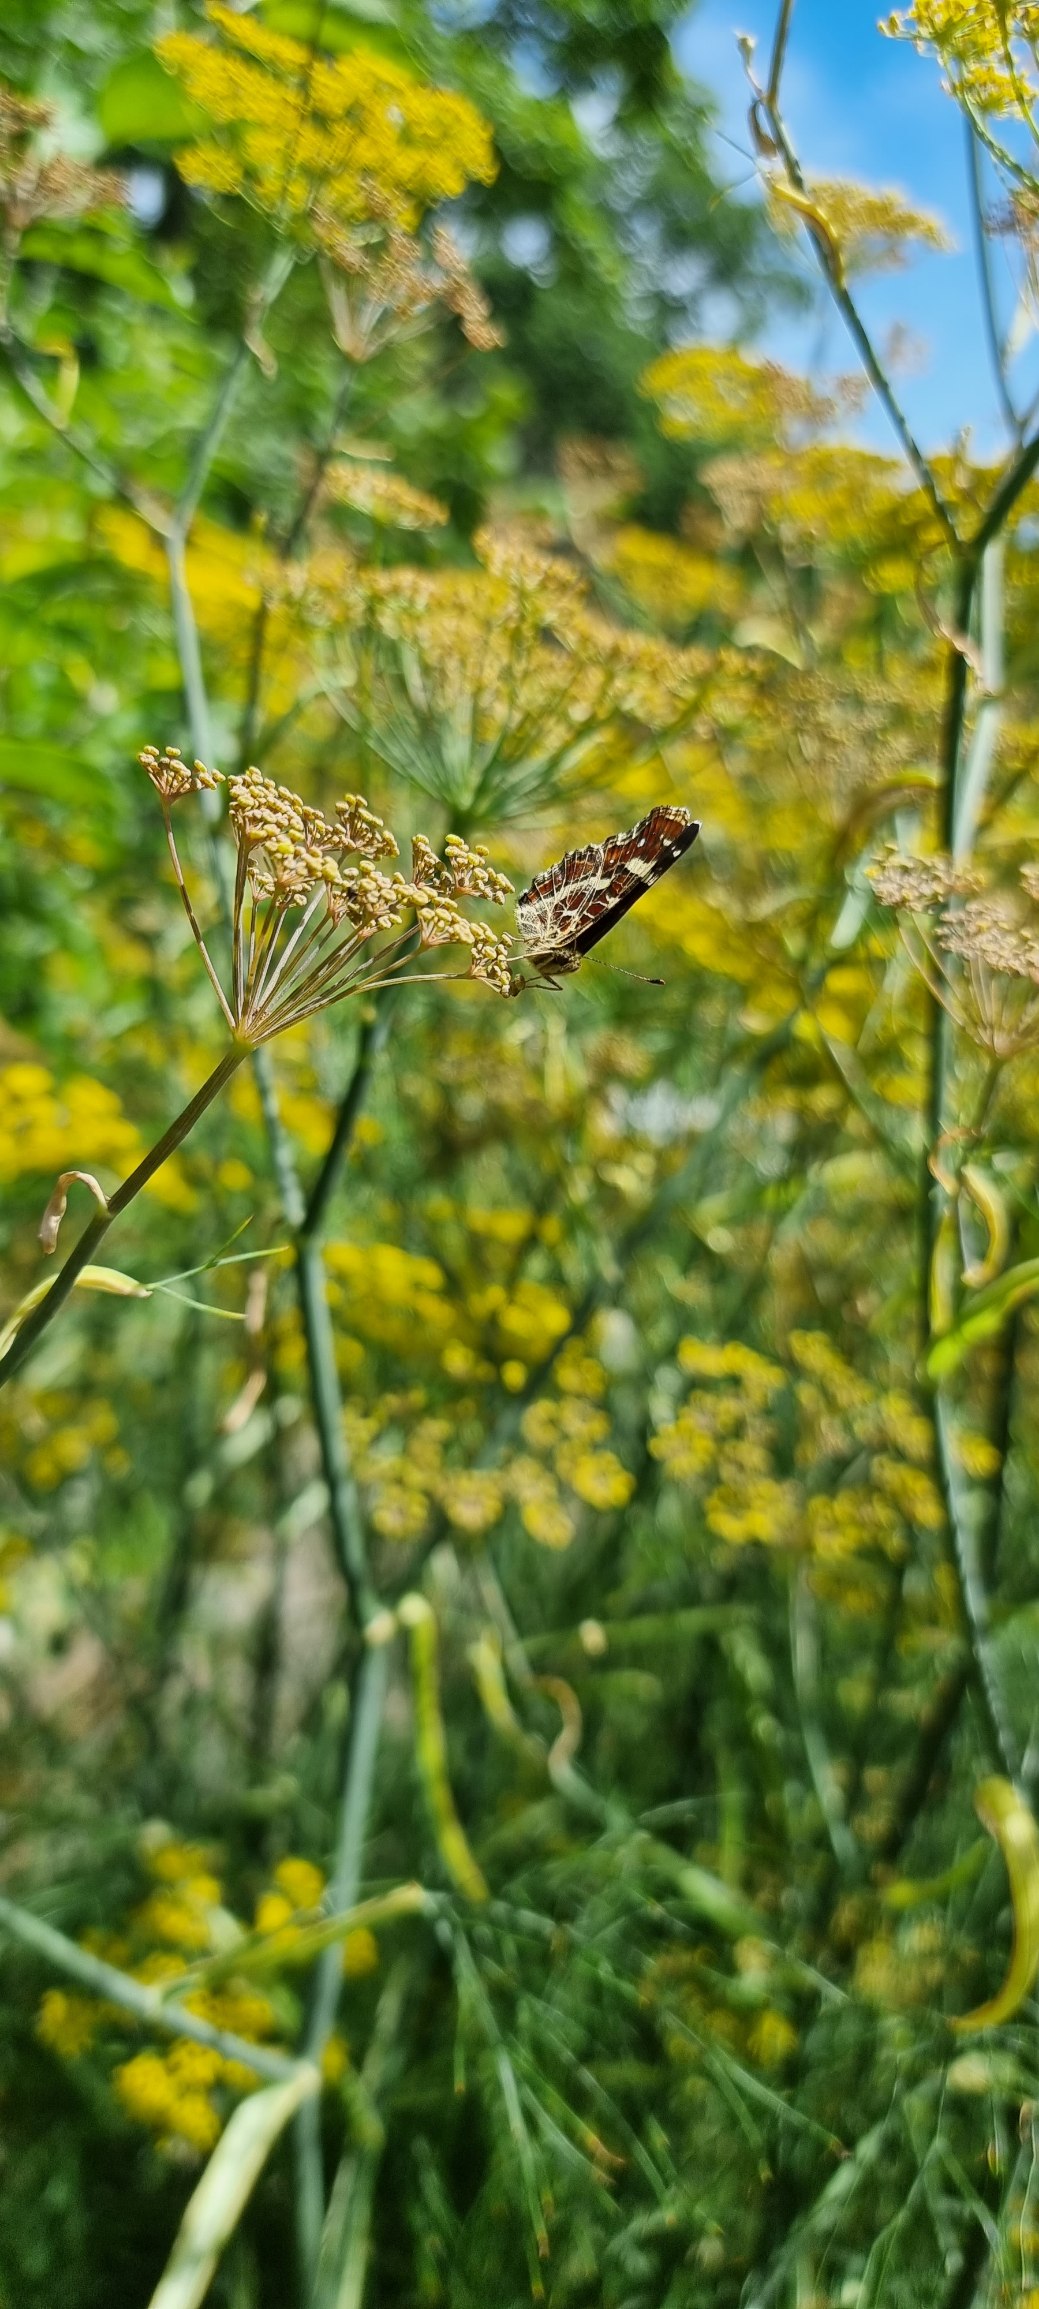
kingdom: Animalia
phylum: Arthropoda
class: Insecta
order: Lepidoptera
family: Nymphalidae
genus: Araschnia
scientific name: Araschnia levana
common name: Nældesommerfugl
